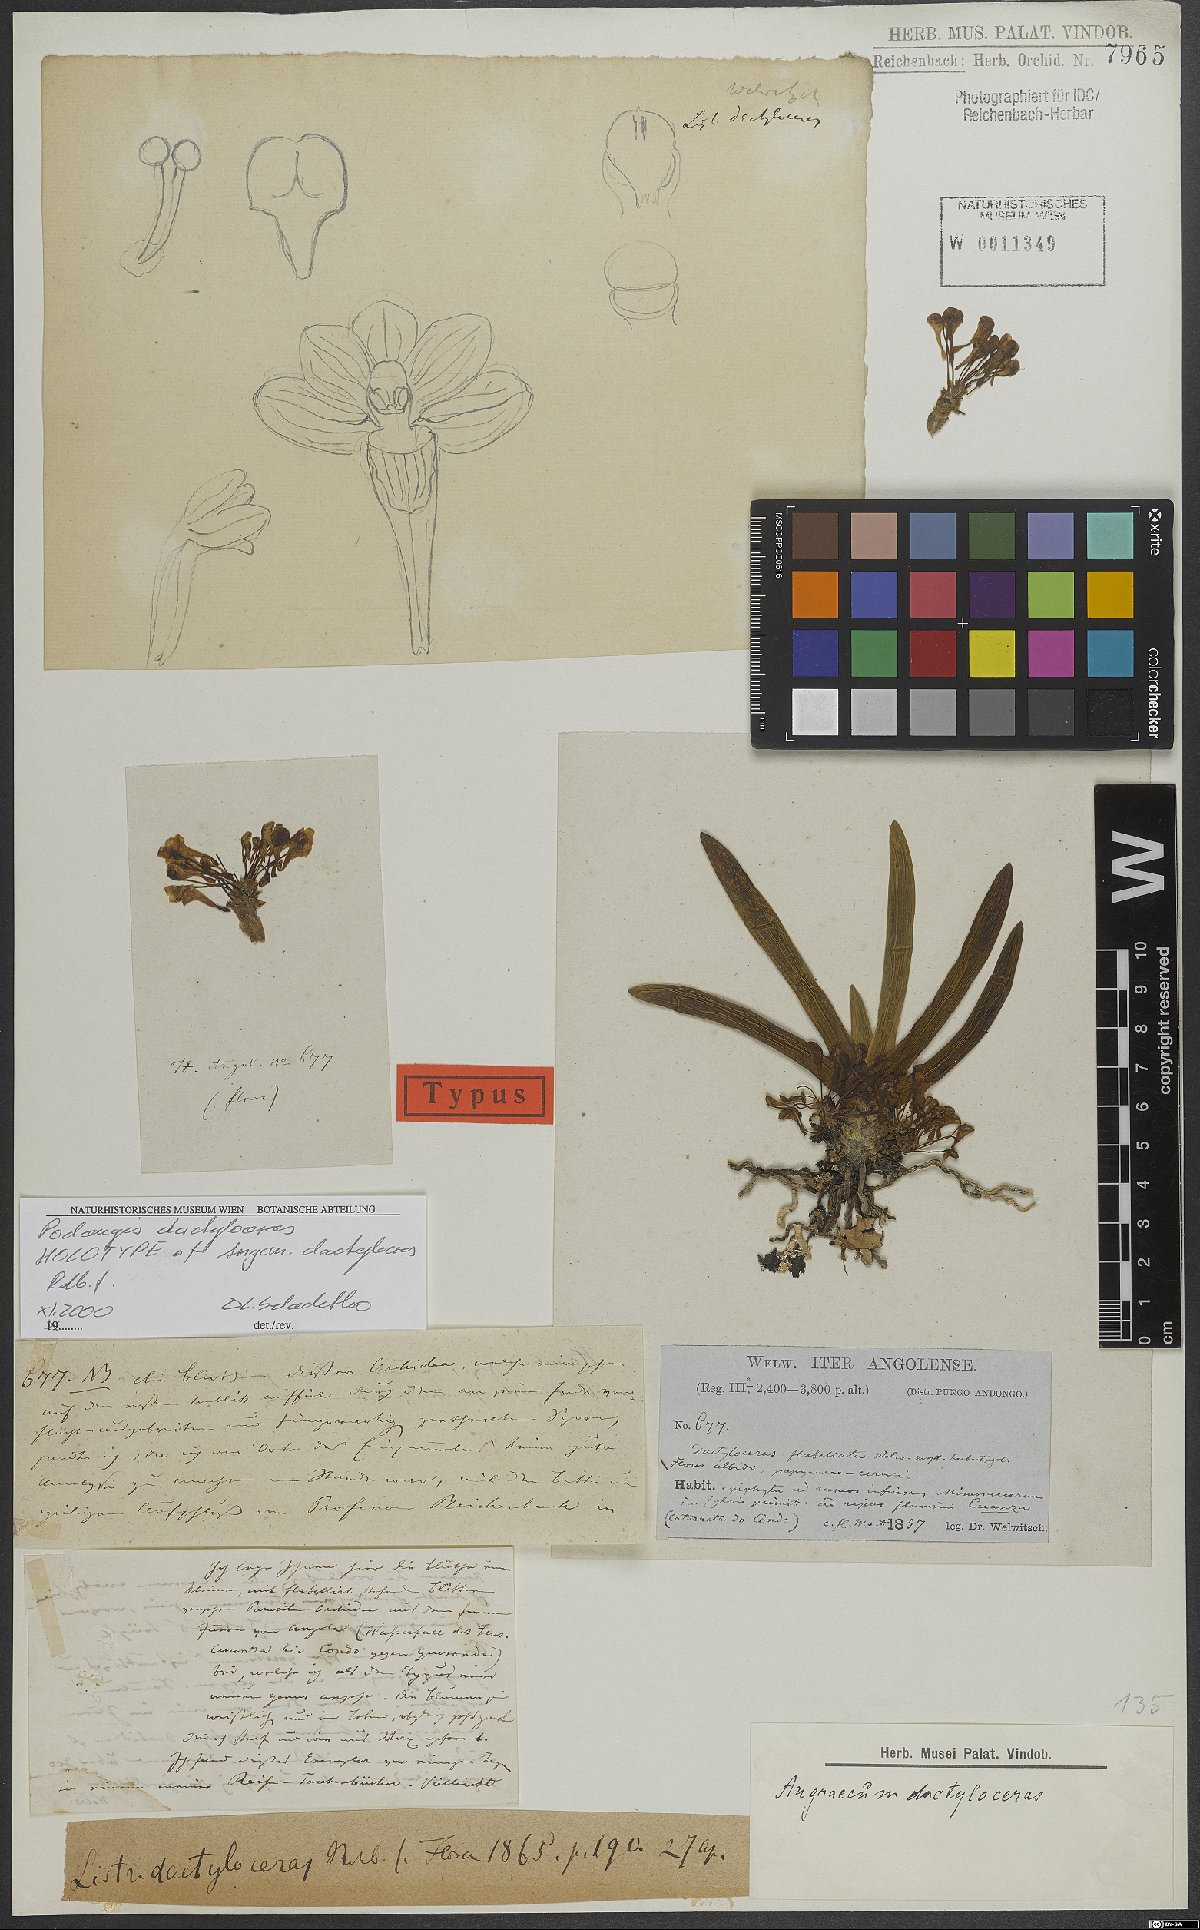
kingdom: Plantae
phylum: Tracheophyta
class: Liliopsida
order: Asparagales
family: Orchidaceae
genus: Podangis
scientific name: Podangis dactyloceras
